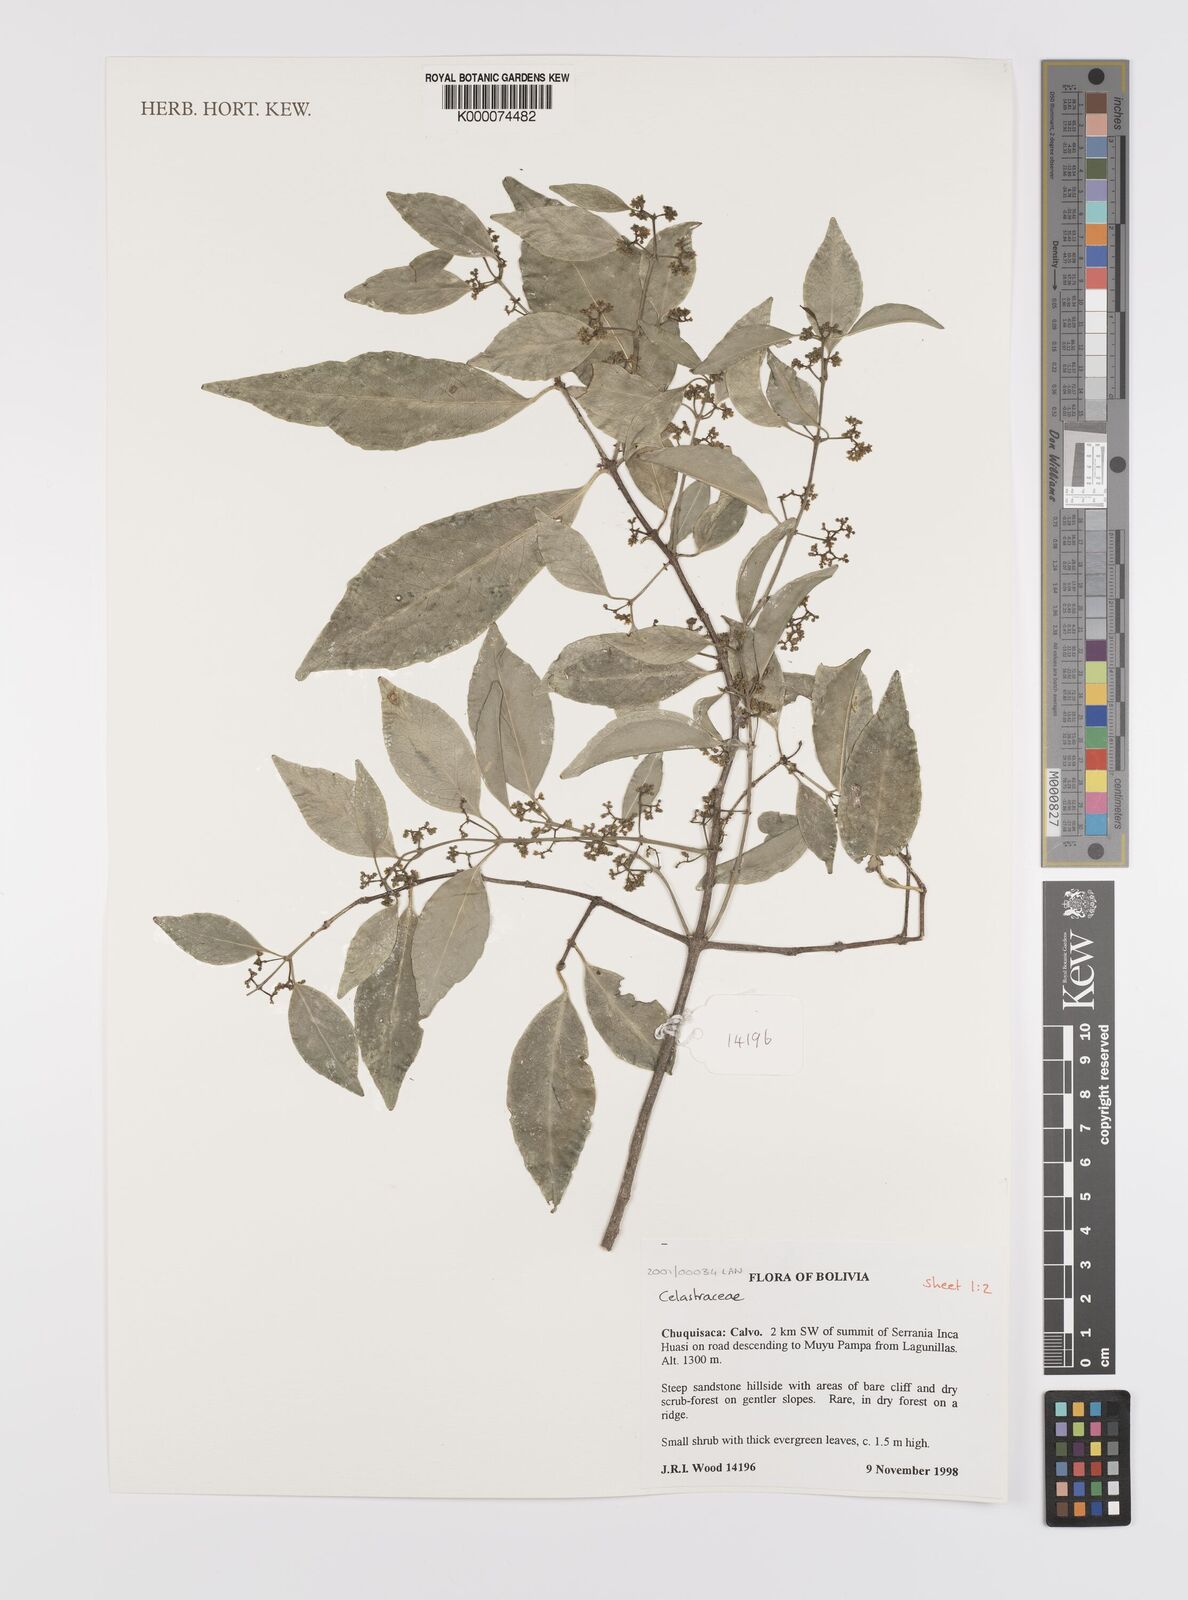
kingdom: Plantae
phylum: Tracheophyta
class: Magnoliopsida
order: Celastrales
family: Celastraceae
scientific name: Celastraceae
